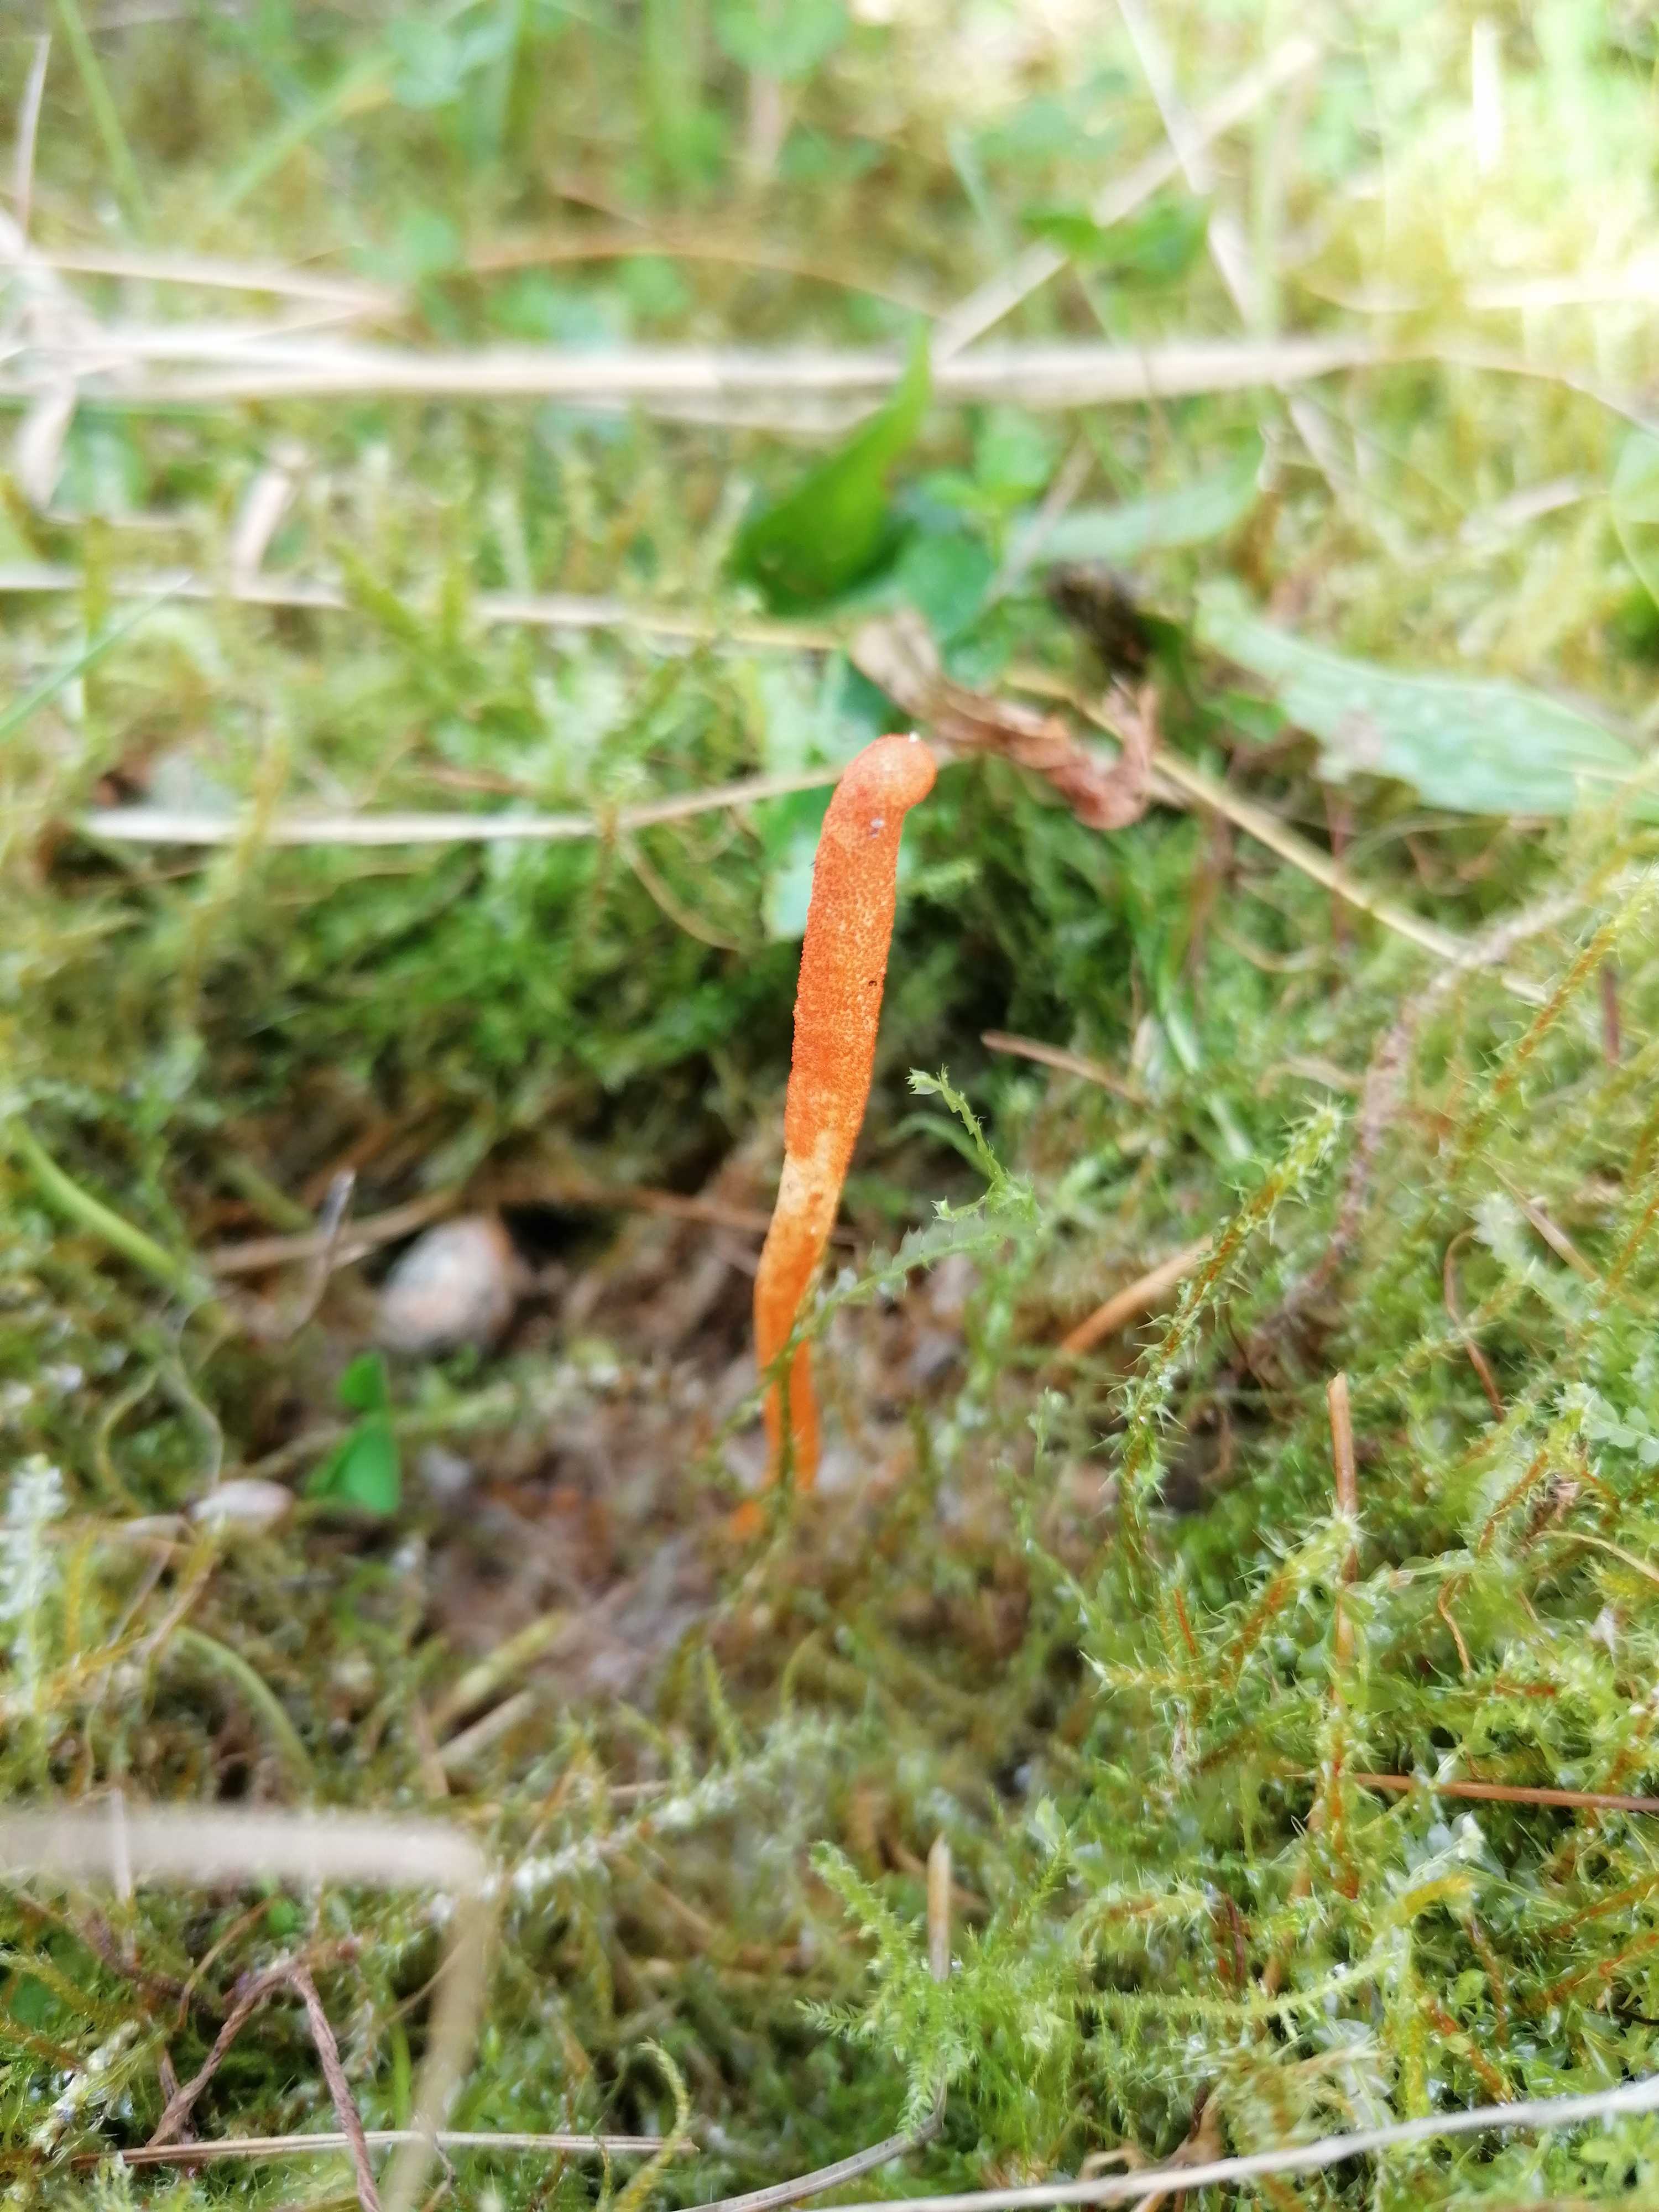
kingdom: Fungi
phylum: Ascomycota
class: Sordariomycetes
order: Hypocreales
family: Cordycipitaceae
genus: Cordyceps
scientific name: Cordyceps militaris
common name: puppe-snyltekølle
